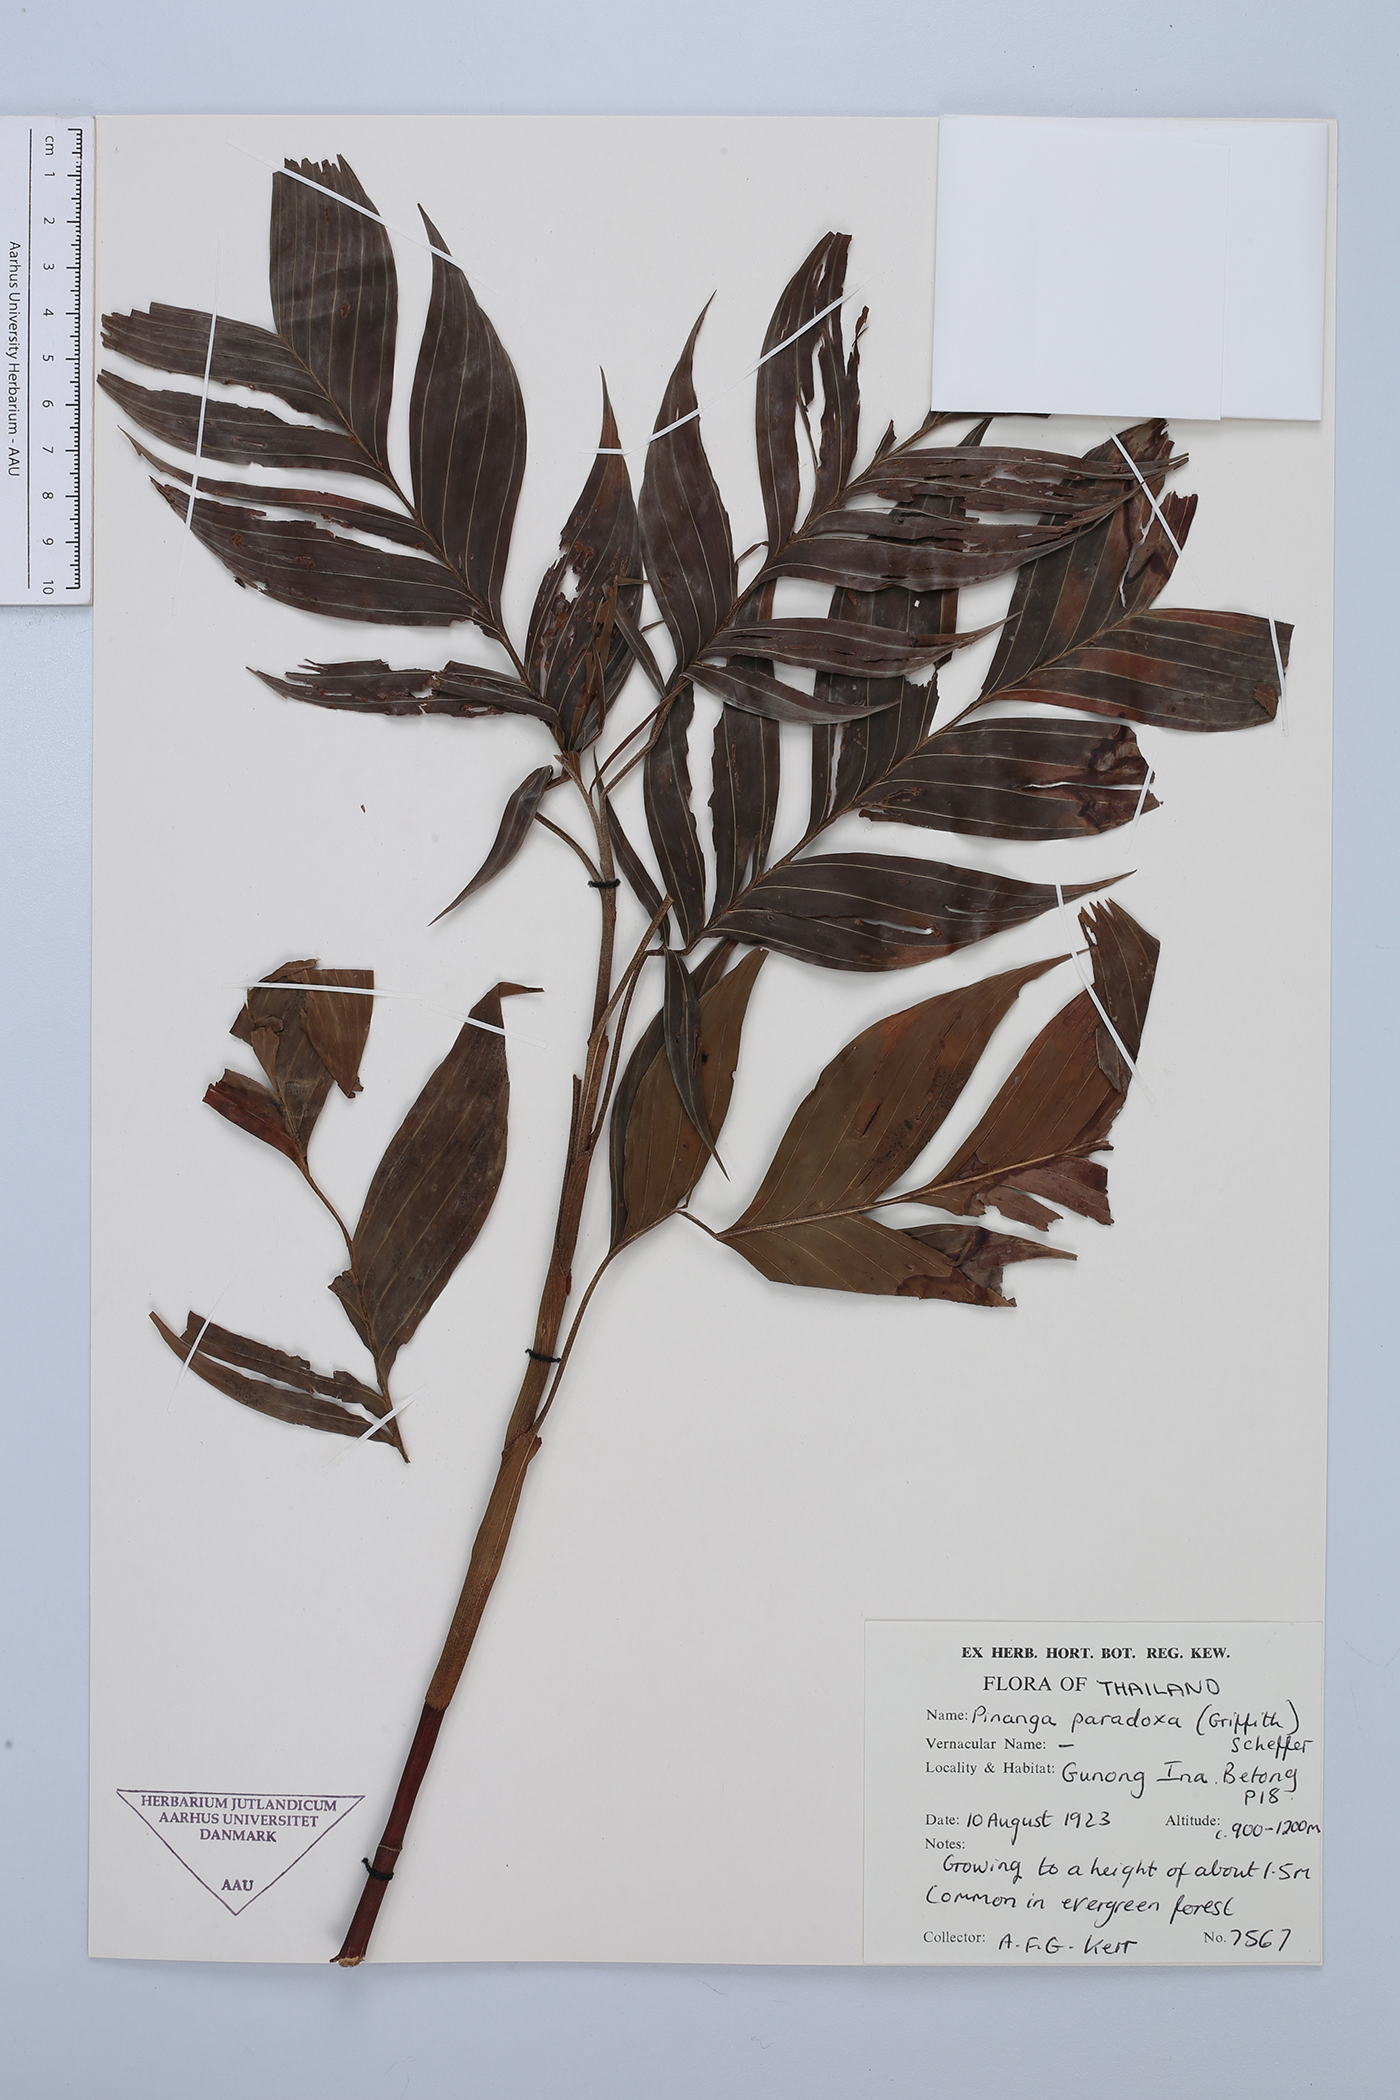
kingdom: Plantae
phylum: Tracheophyta
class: Liliopsida
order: Arecales
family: Arecaceae
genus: Pinanga
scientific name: Pinanga paradoxa
